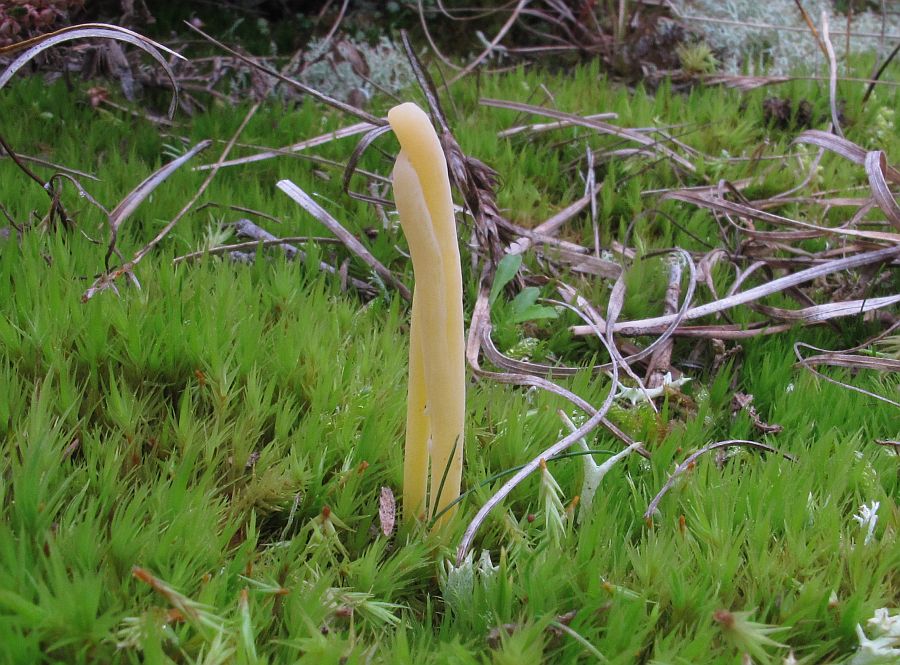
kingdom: Fungi
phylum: Basidiomycota
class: Agaricomycetes
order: Agaricales
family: Clavariaceae
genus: Clavaria
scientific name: Clavaria argillacea
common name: lerfarvet køllesvamp
